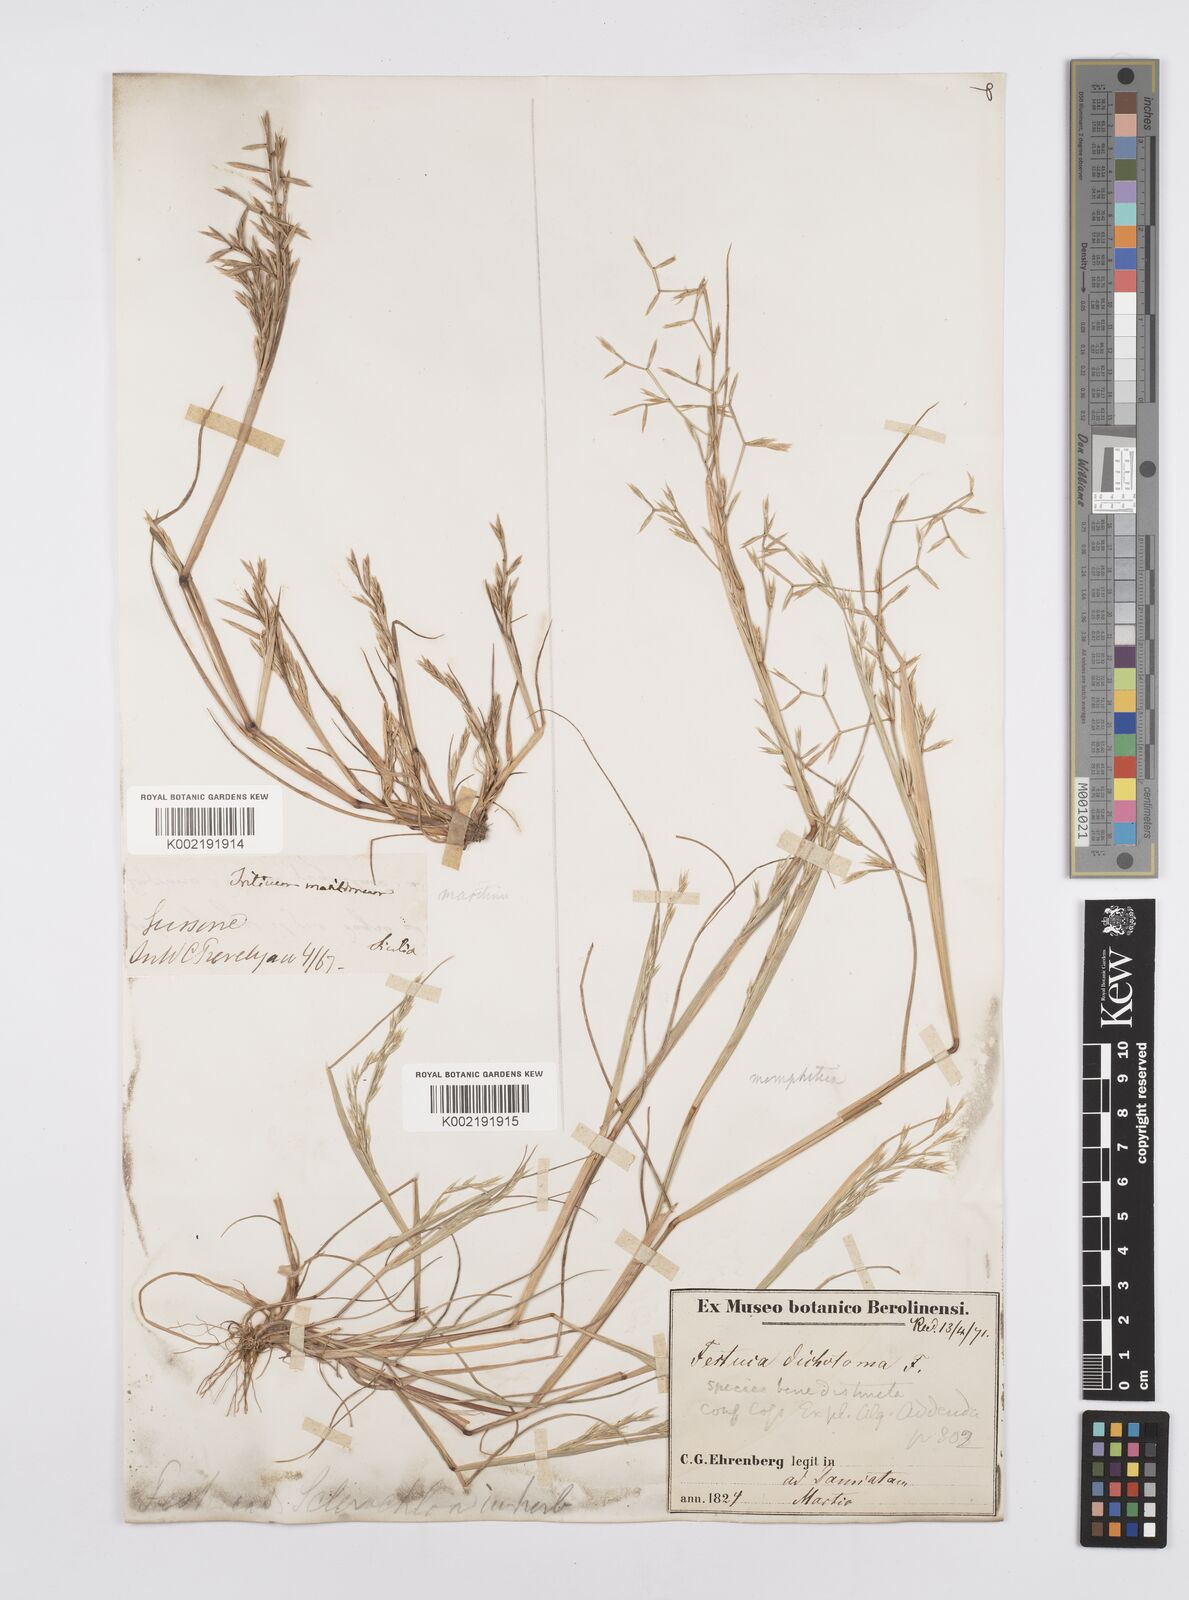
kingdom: Plantae
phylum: Tracheophyta
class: Liliopsida
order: Poales
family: Poaceae
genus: Cutandia
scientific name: Cutandia maritima
